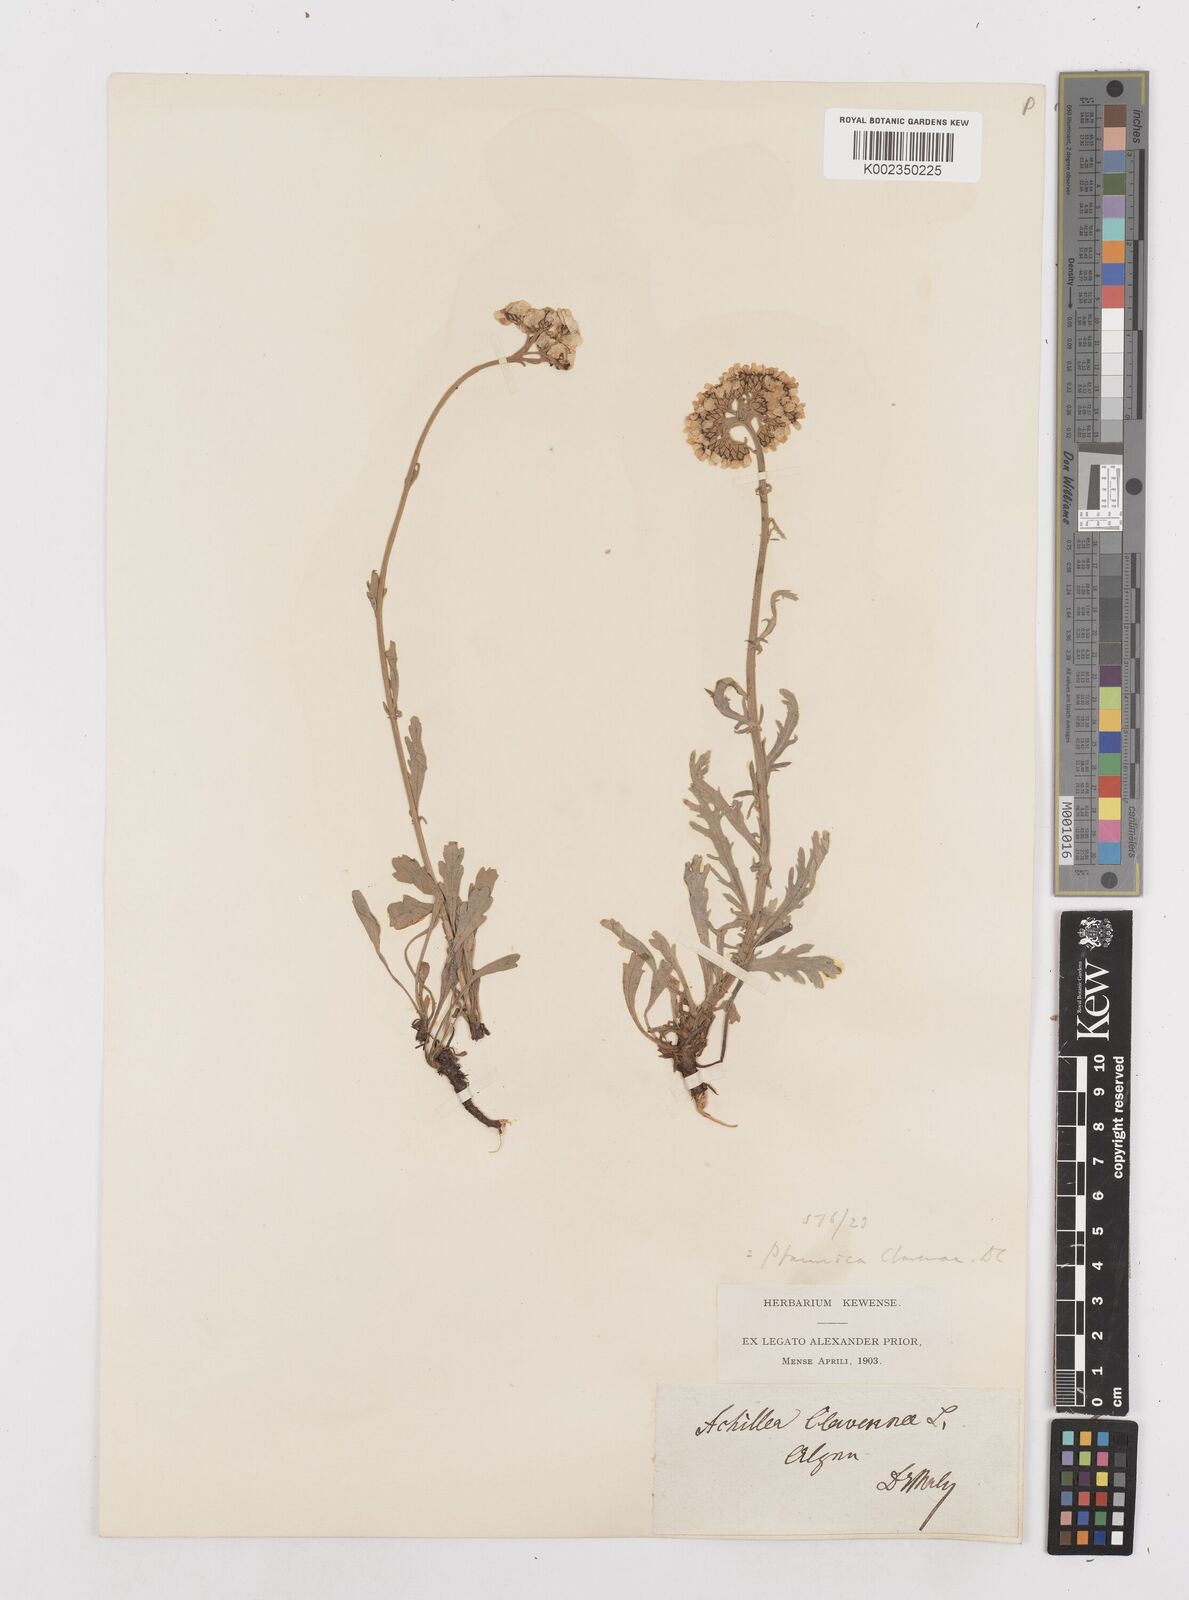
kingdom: Plantae
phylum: Tracheophyta
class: Magnoliopsida
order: Asterales
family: Asteraceae
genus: Achillea
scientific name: Achillea clavennae
